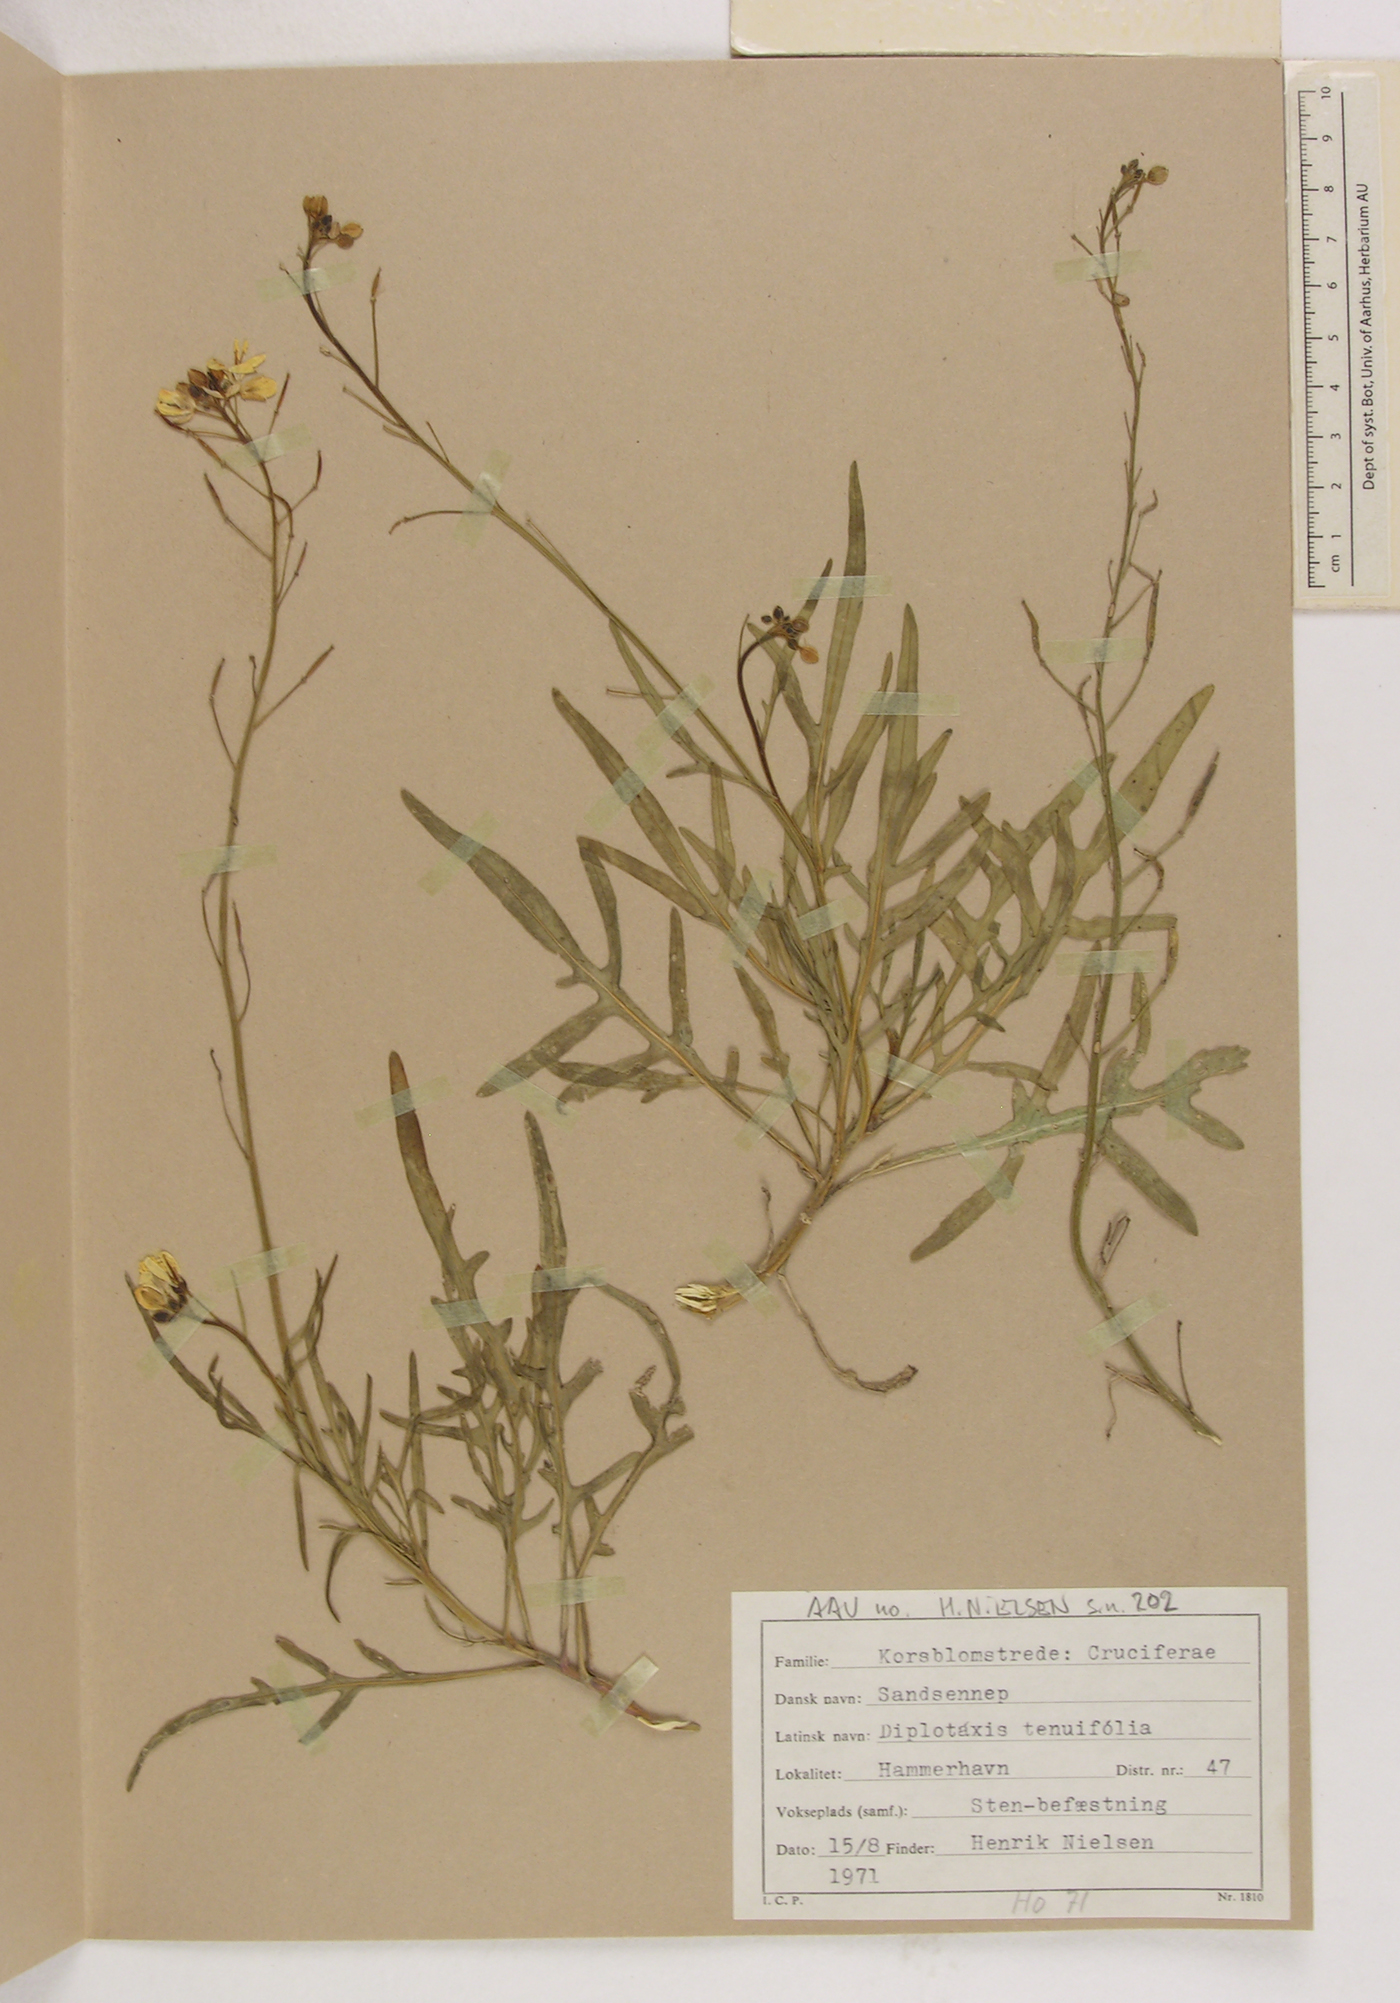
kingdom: Plantae
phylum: Tracheophyta
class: Magnoliopsida
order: Brassicales
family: Brassicaceae
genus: Diplotaxis
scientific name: Diplotaxis tenuifolia
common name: Perennial wall-rocket
